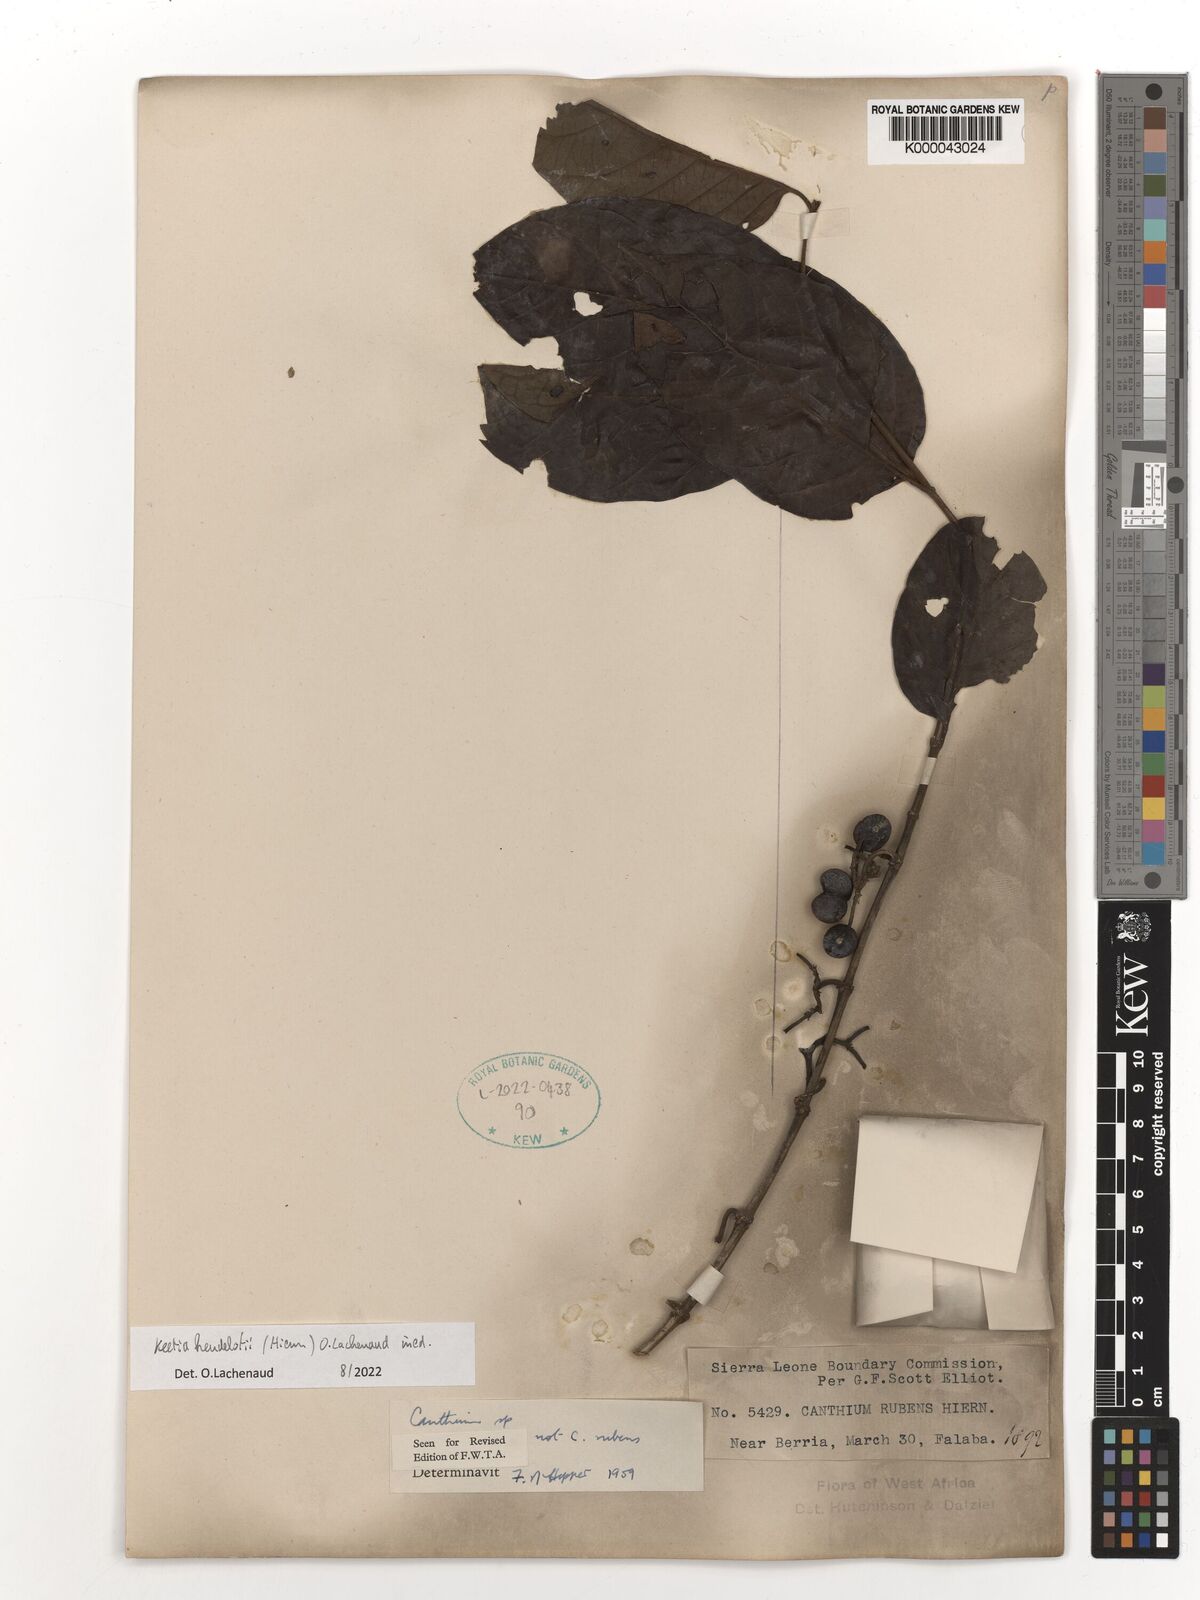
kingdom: Plantae
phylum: Tracheophyta
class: Magnoliopsida
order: Gentianales
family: Rubiaceae
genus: Keetia
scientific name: Keetia cornelia
